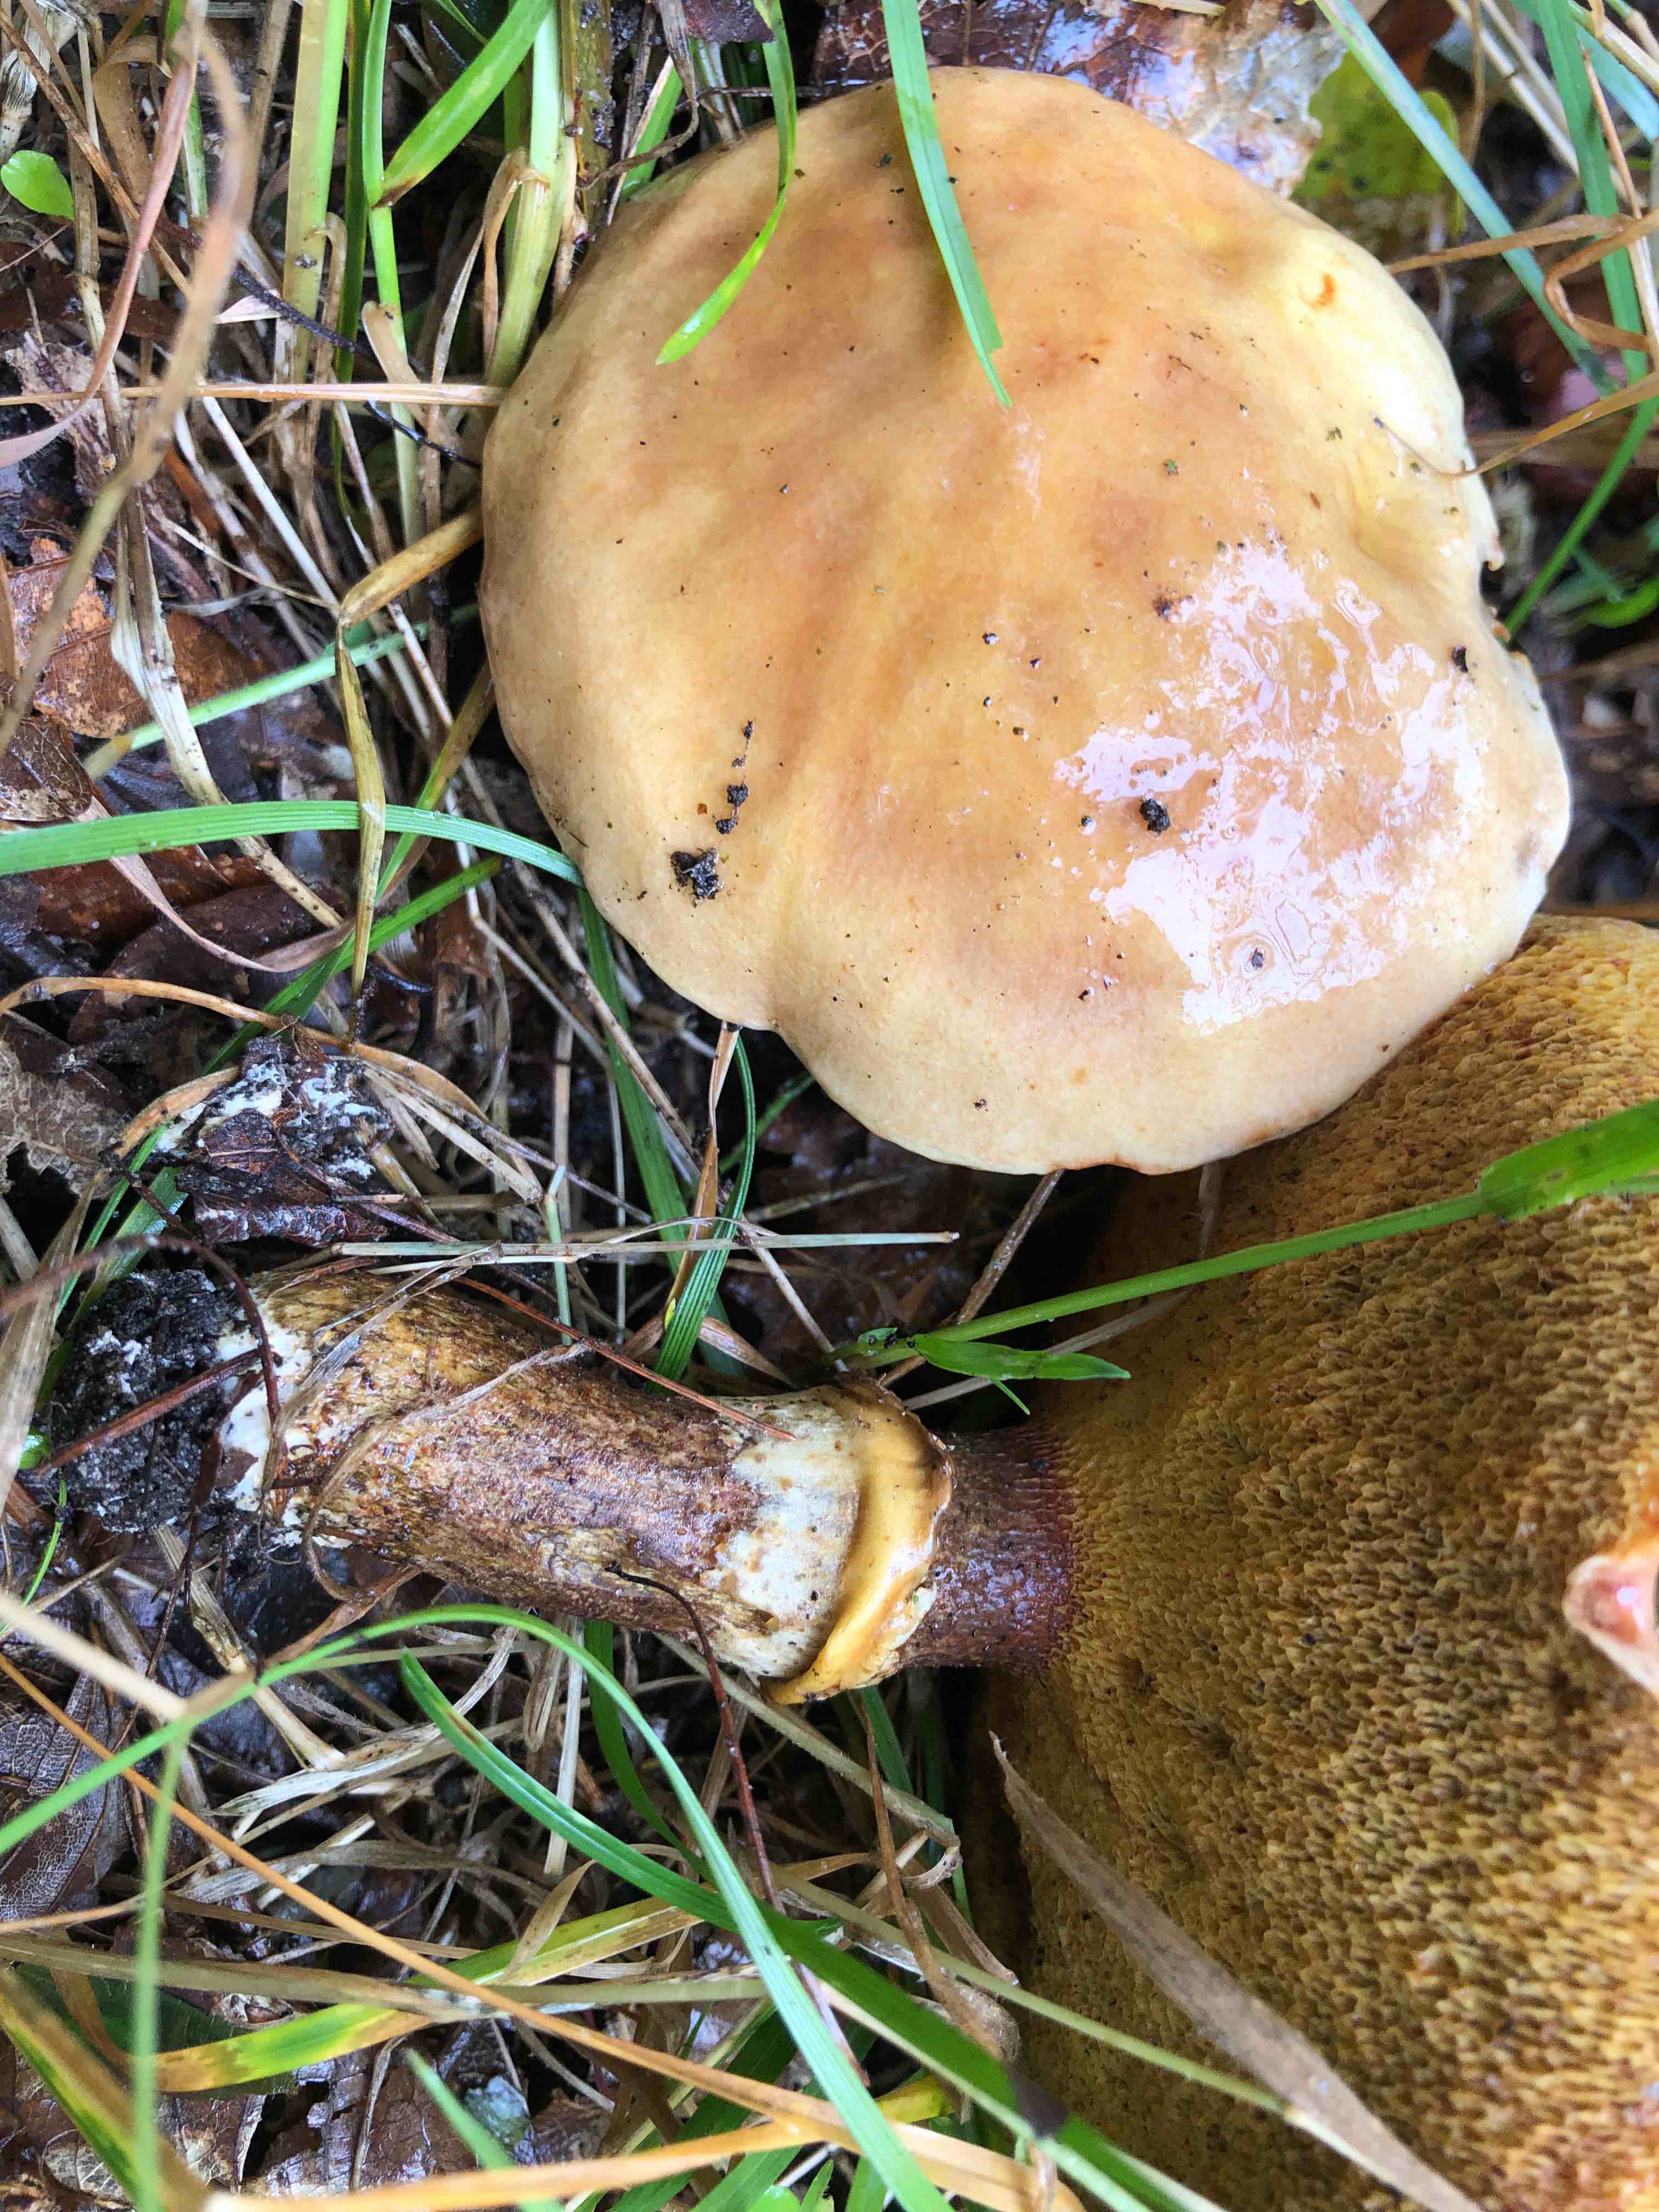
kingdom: Fungi
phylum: Basidiomycota
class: Agaricomycetes
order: Boletales
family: Suillaceae
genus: Suillus
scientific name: Suillus grevillei
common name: lærke-slimrørhat
